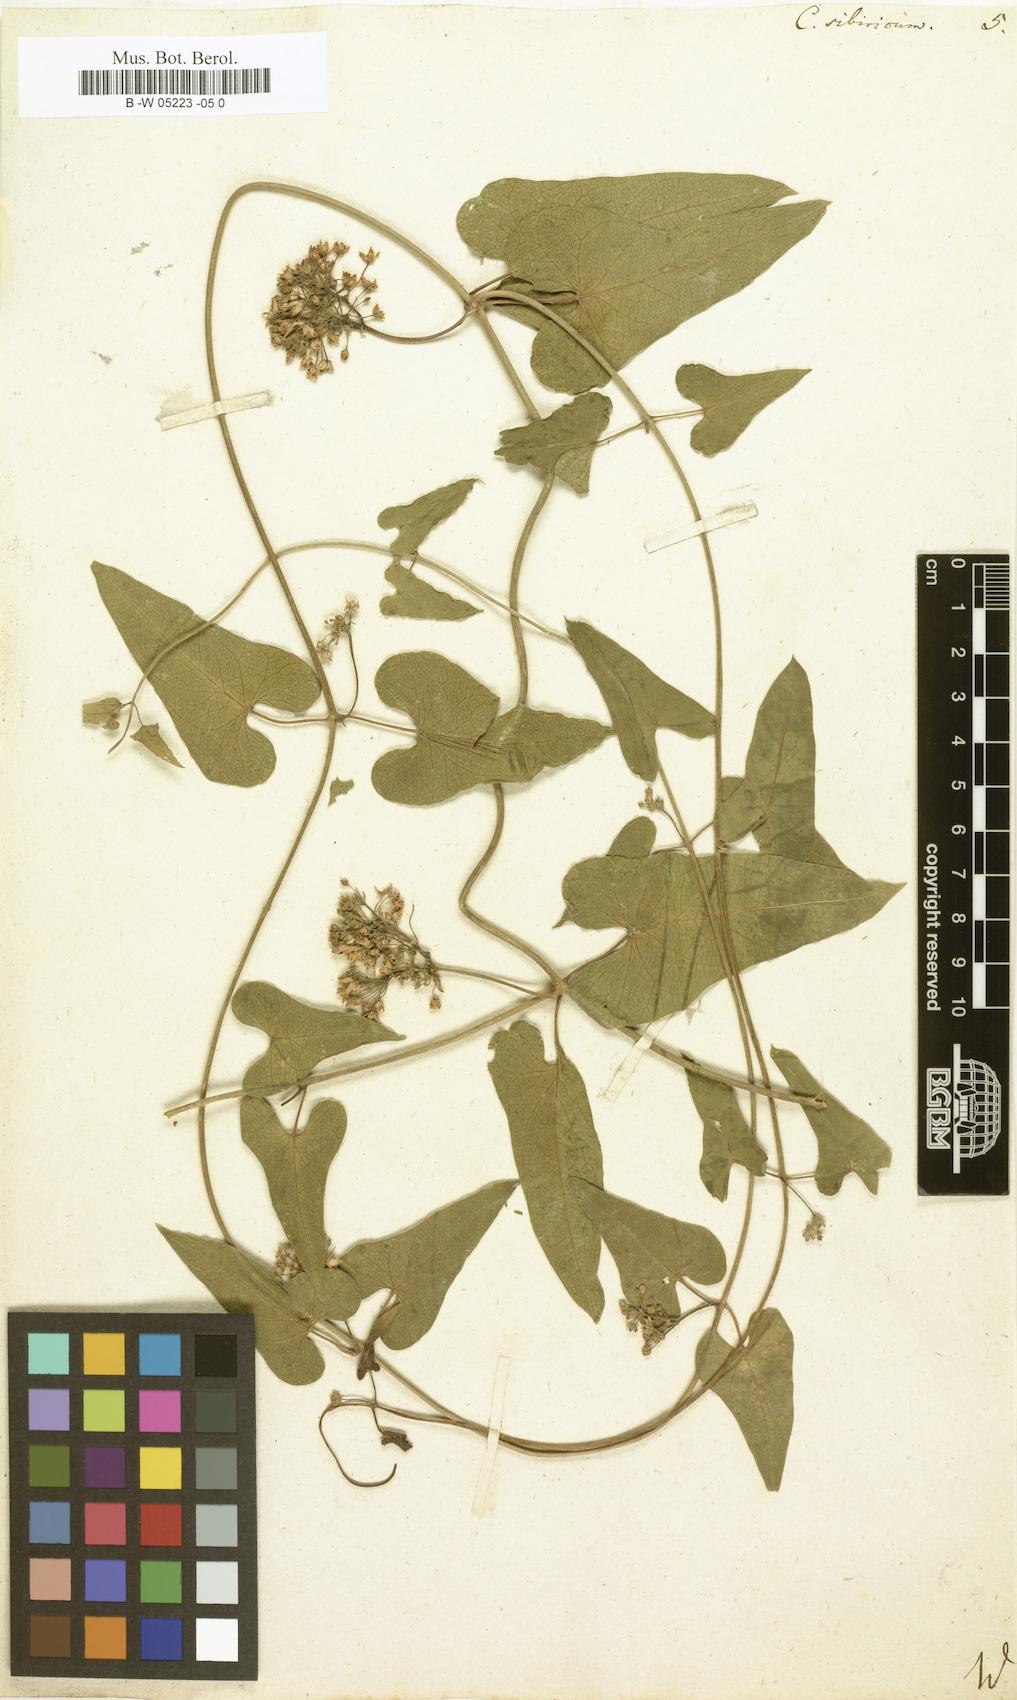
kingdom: Plantae
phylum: Tracheophyta
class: Magnoliopsida
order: Gentianales
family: Apocynaceae
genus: Cynanchum
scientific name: Cynanchum
